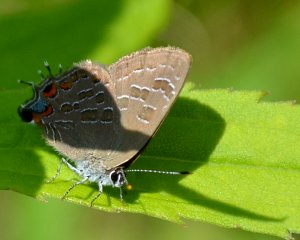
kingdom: Animalia
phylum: Arthropoda
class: Insecta
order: Lepidoptera
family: Lycaenidae
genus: Satyrium
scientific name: Satyrium liparops
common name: Striped Hairstreak
